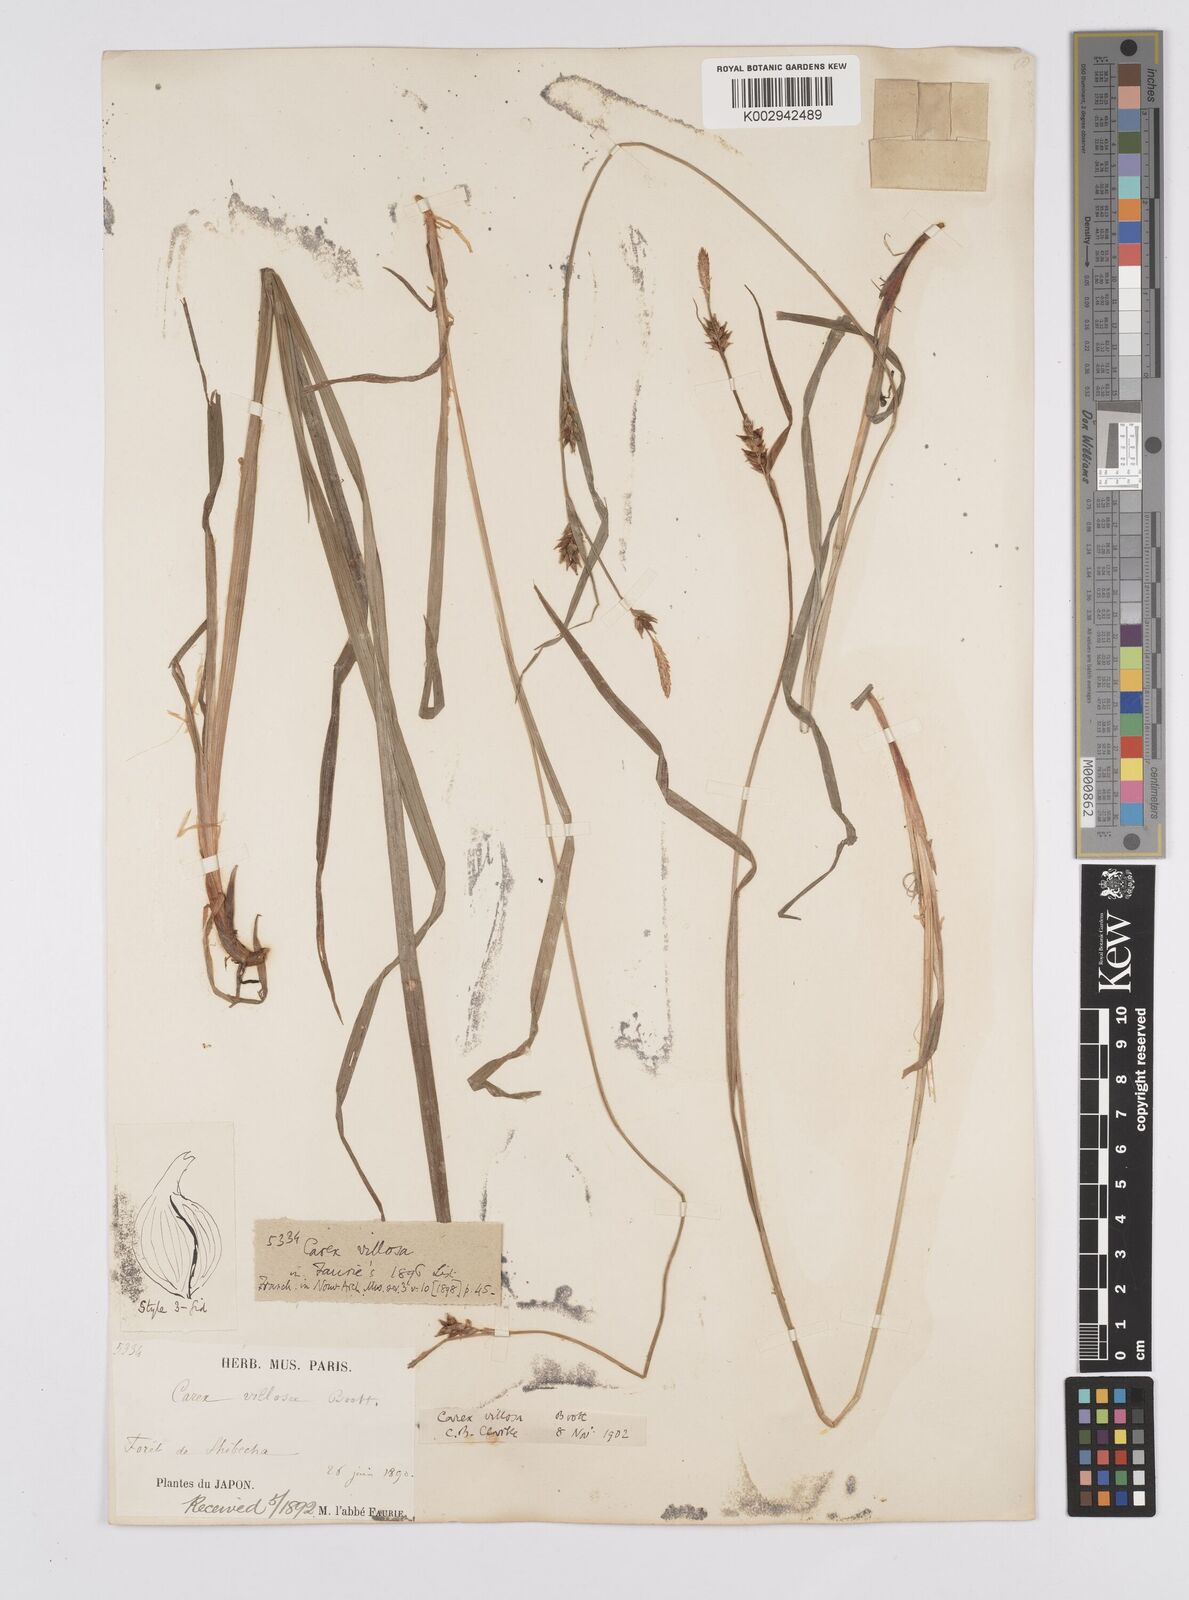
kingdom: Plantae
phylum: Tracheophyta
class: Liliopsida
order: Poales
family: Cyperaceae
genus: Carex
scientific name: Carex latisquamea
